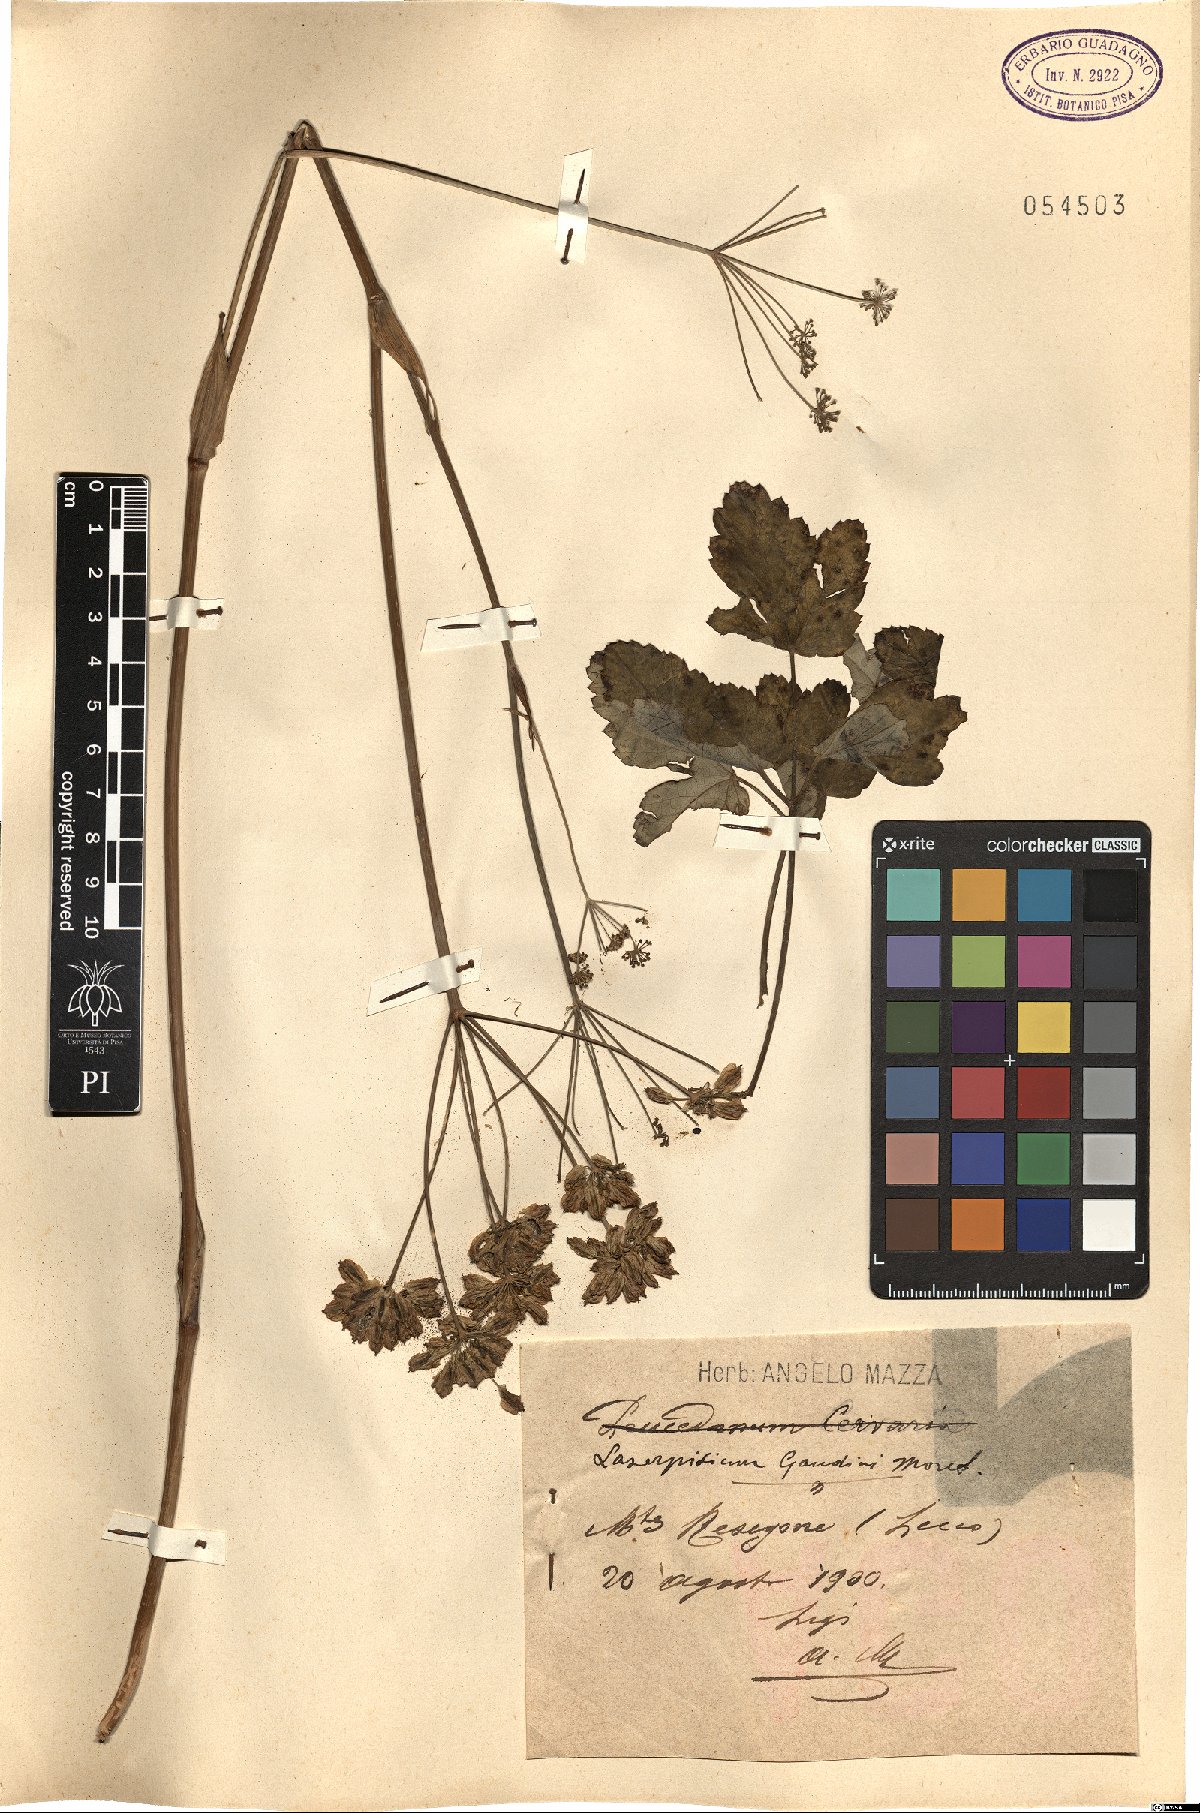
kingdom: Plantae
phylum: Tracheophyta
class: Magnoliopsida
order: Apiales
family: Apiaceae
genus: Laserpitium
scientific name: Laserpitium krapffii
